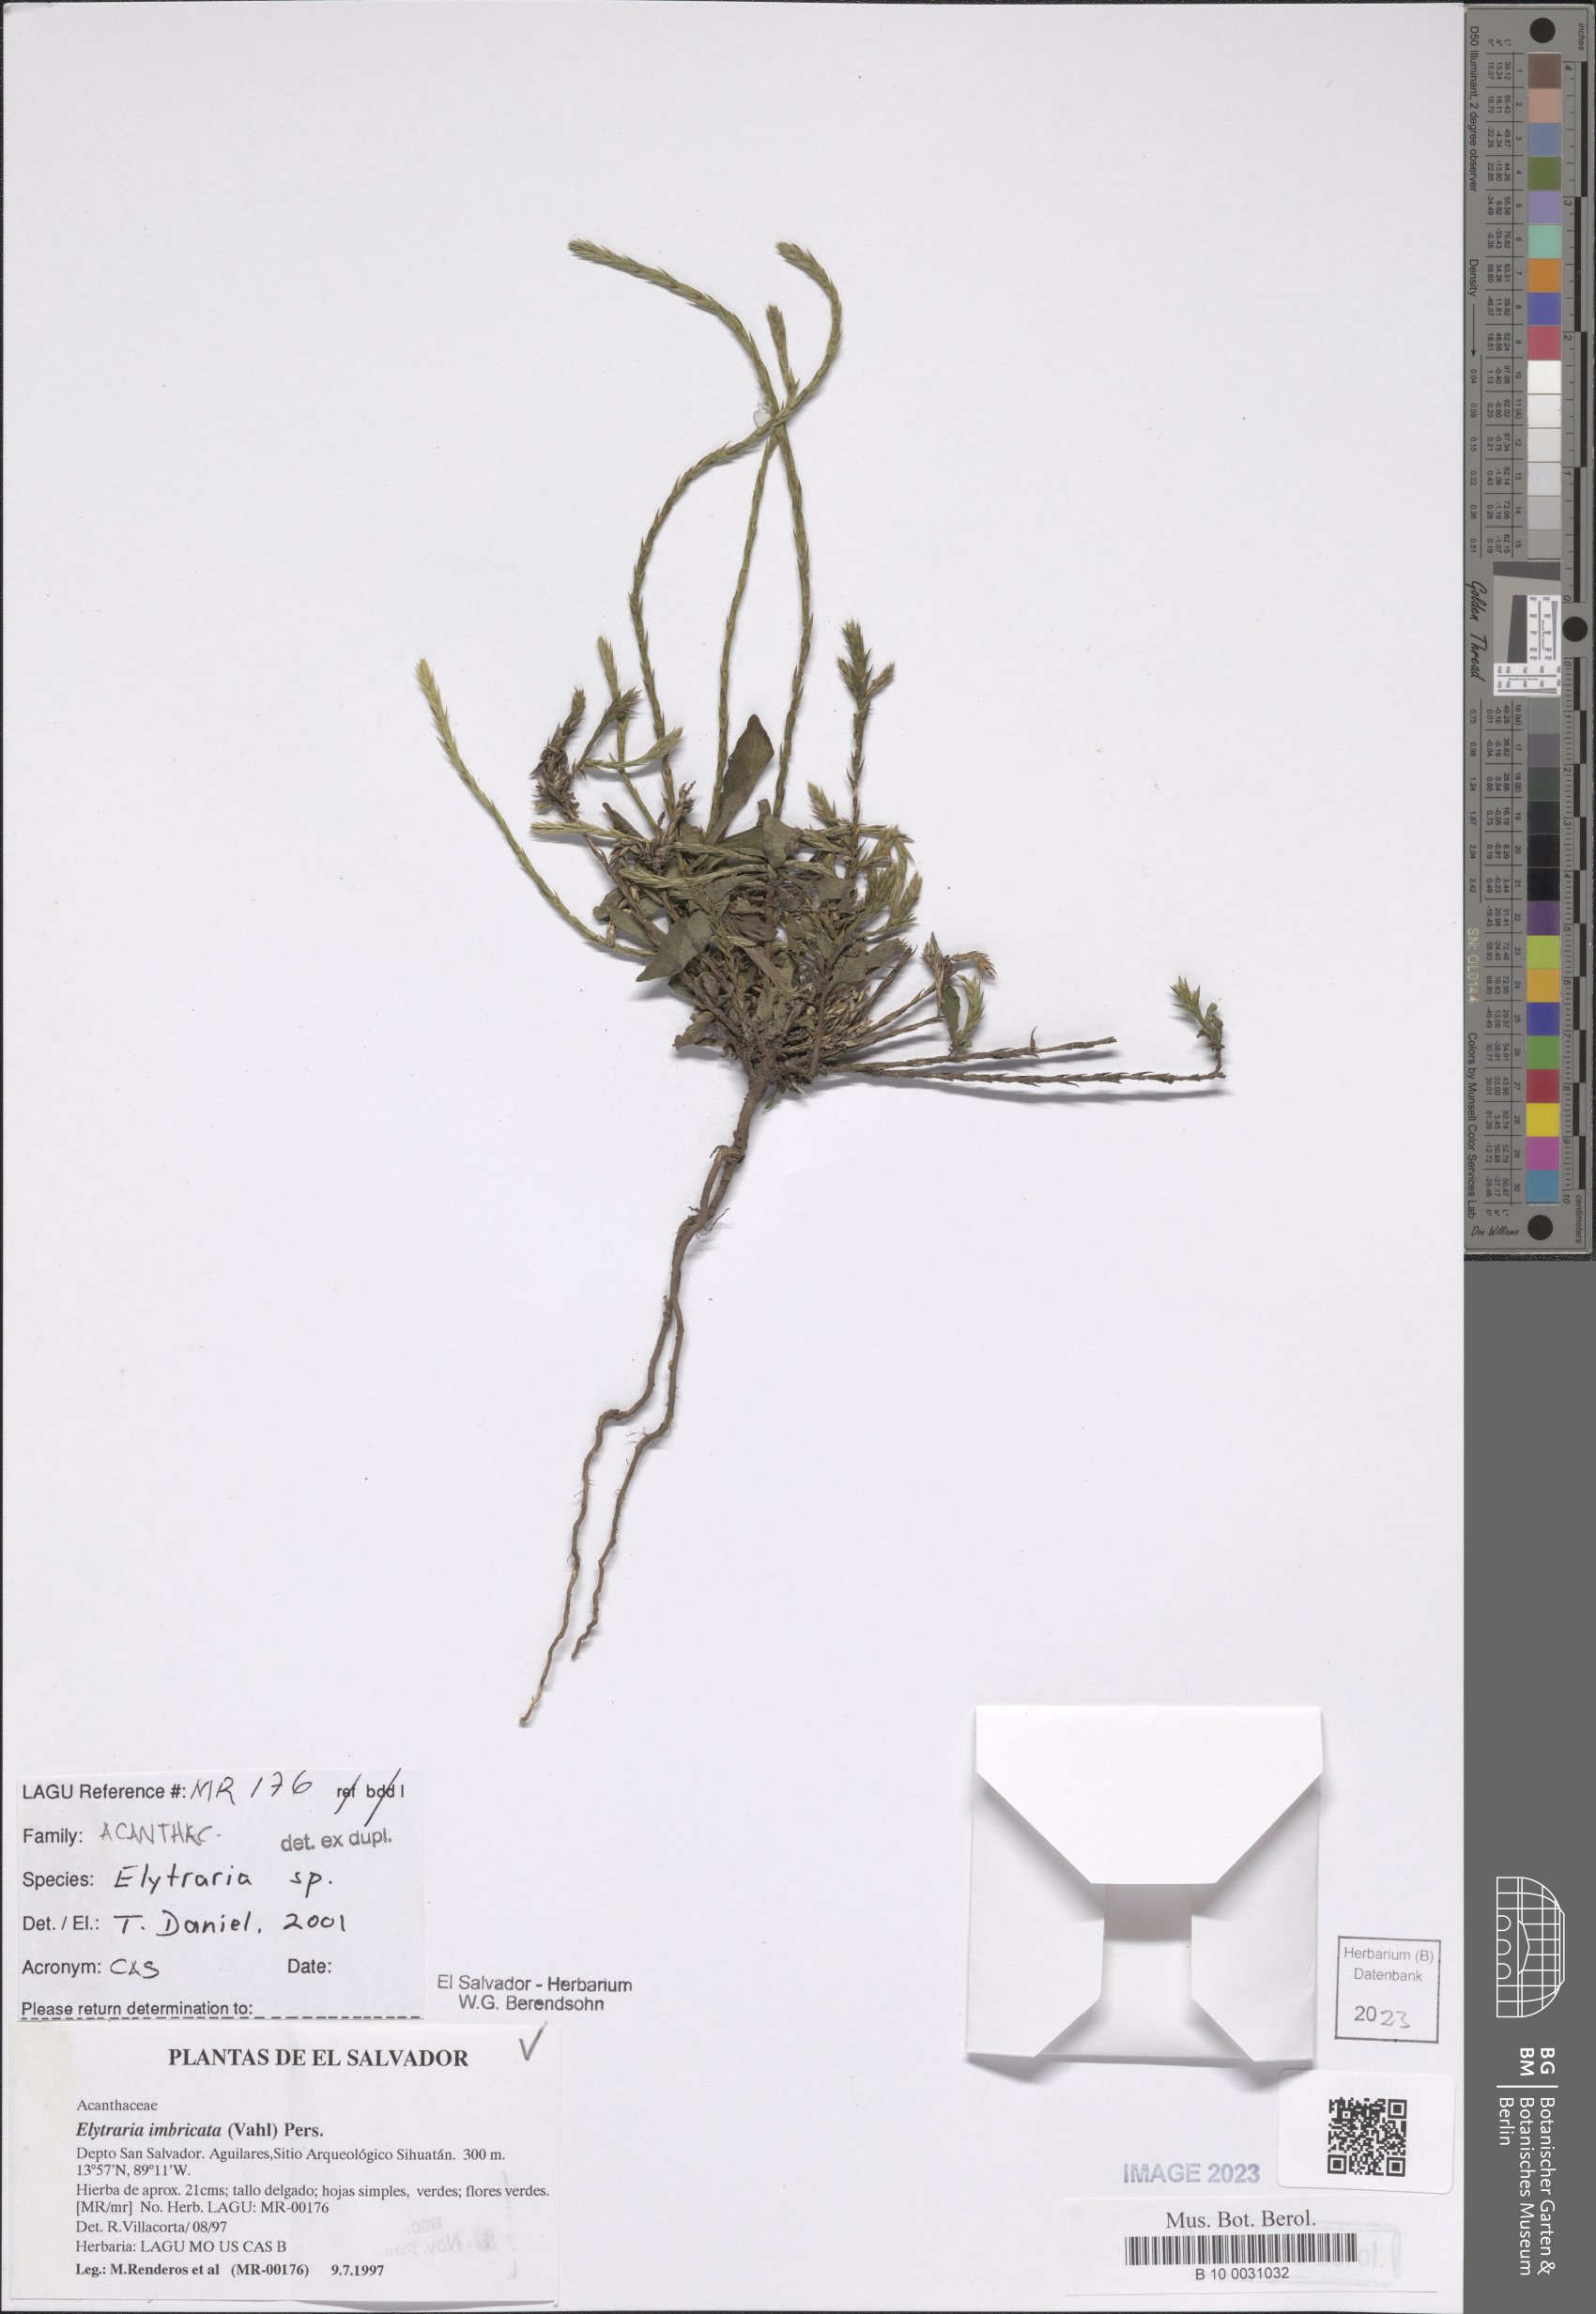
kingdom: Plantae
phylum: Tracheophyta
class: Magnoliopsida
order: Lamiales
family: Acanthaceae
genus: Elytraria
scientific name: Elytraria imbricata
